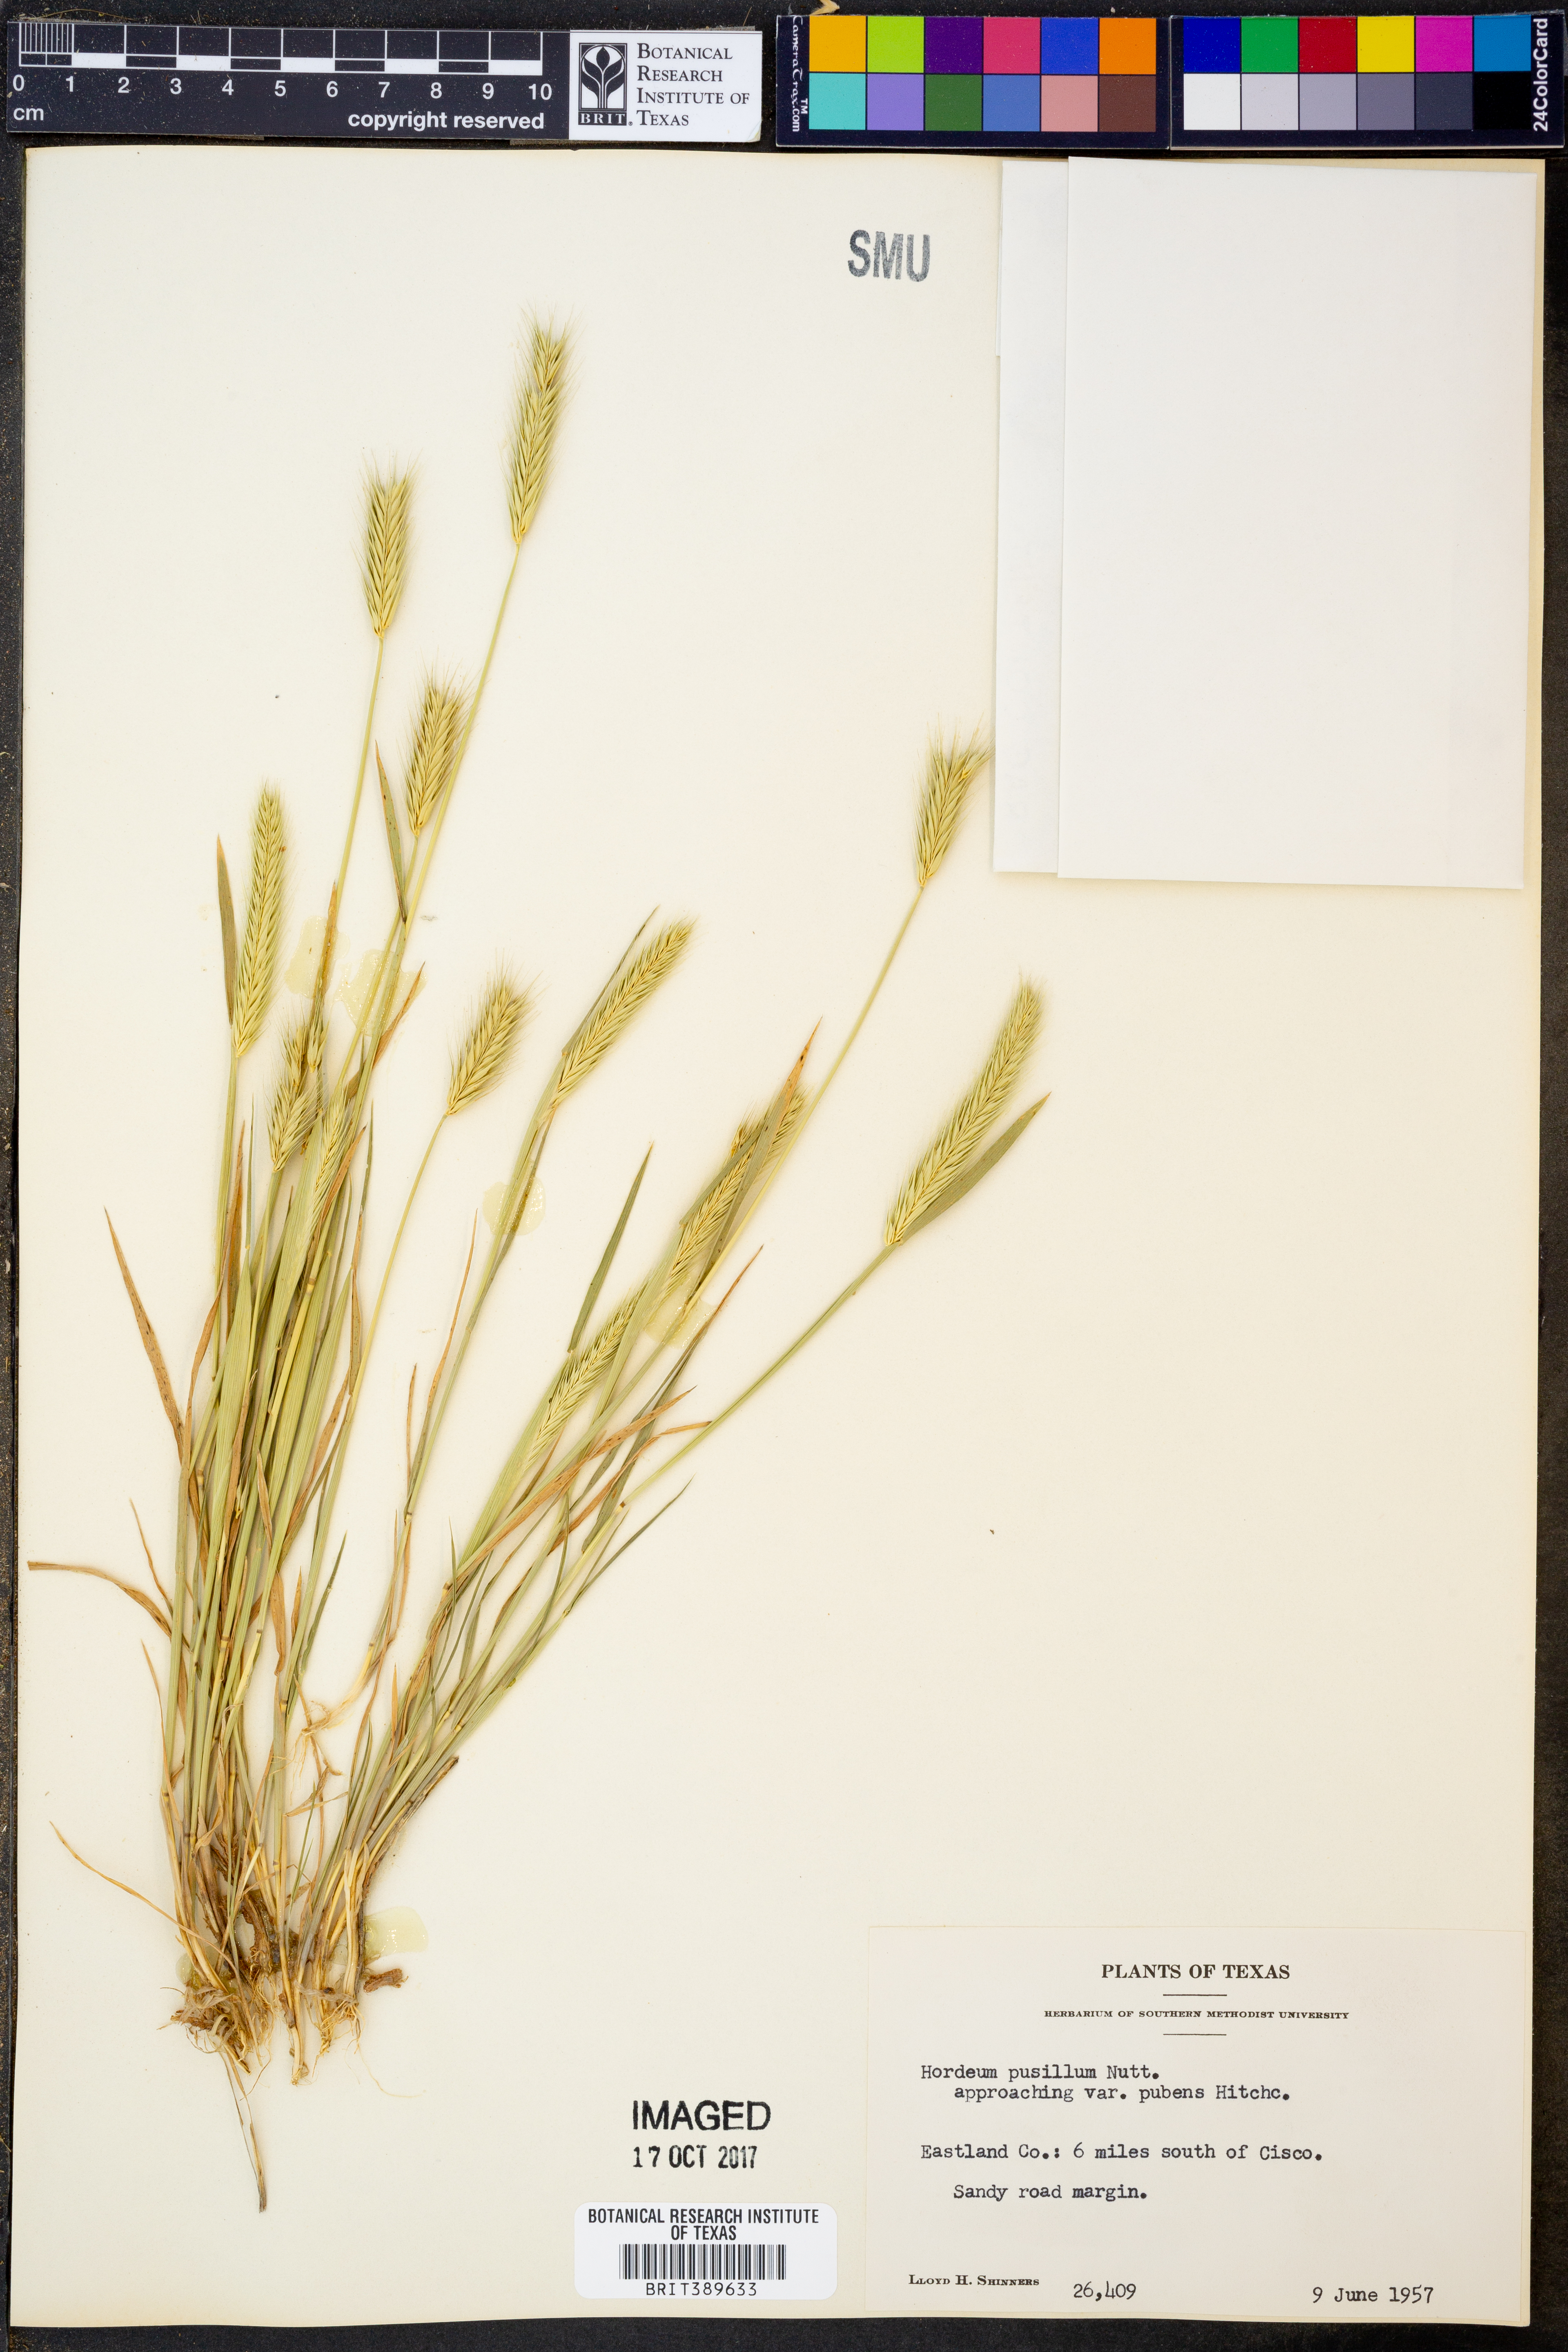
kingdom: Plantae
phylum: Tracheophyta
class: Liliopsida
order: Poales
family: Poaceae
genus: Hordeum
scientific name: Hordeum pusillum
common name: Little barley
